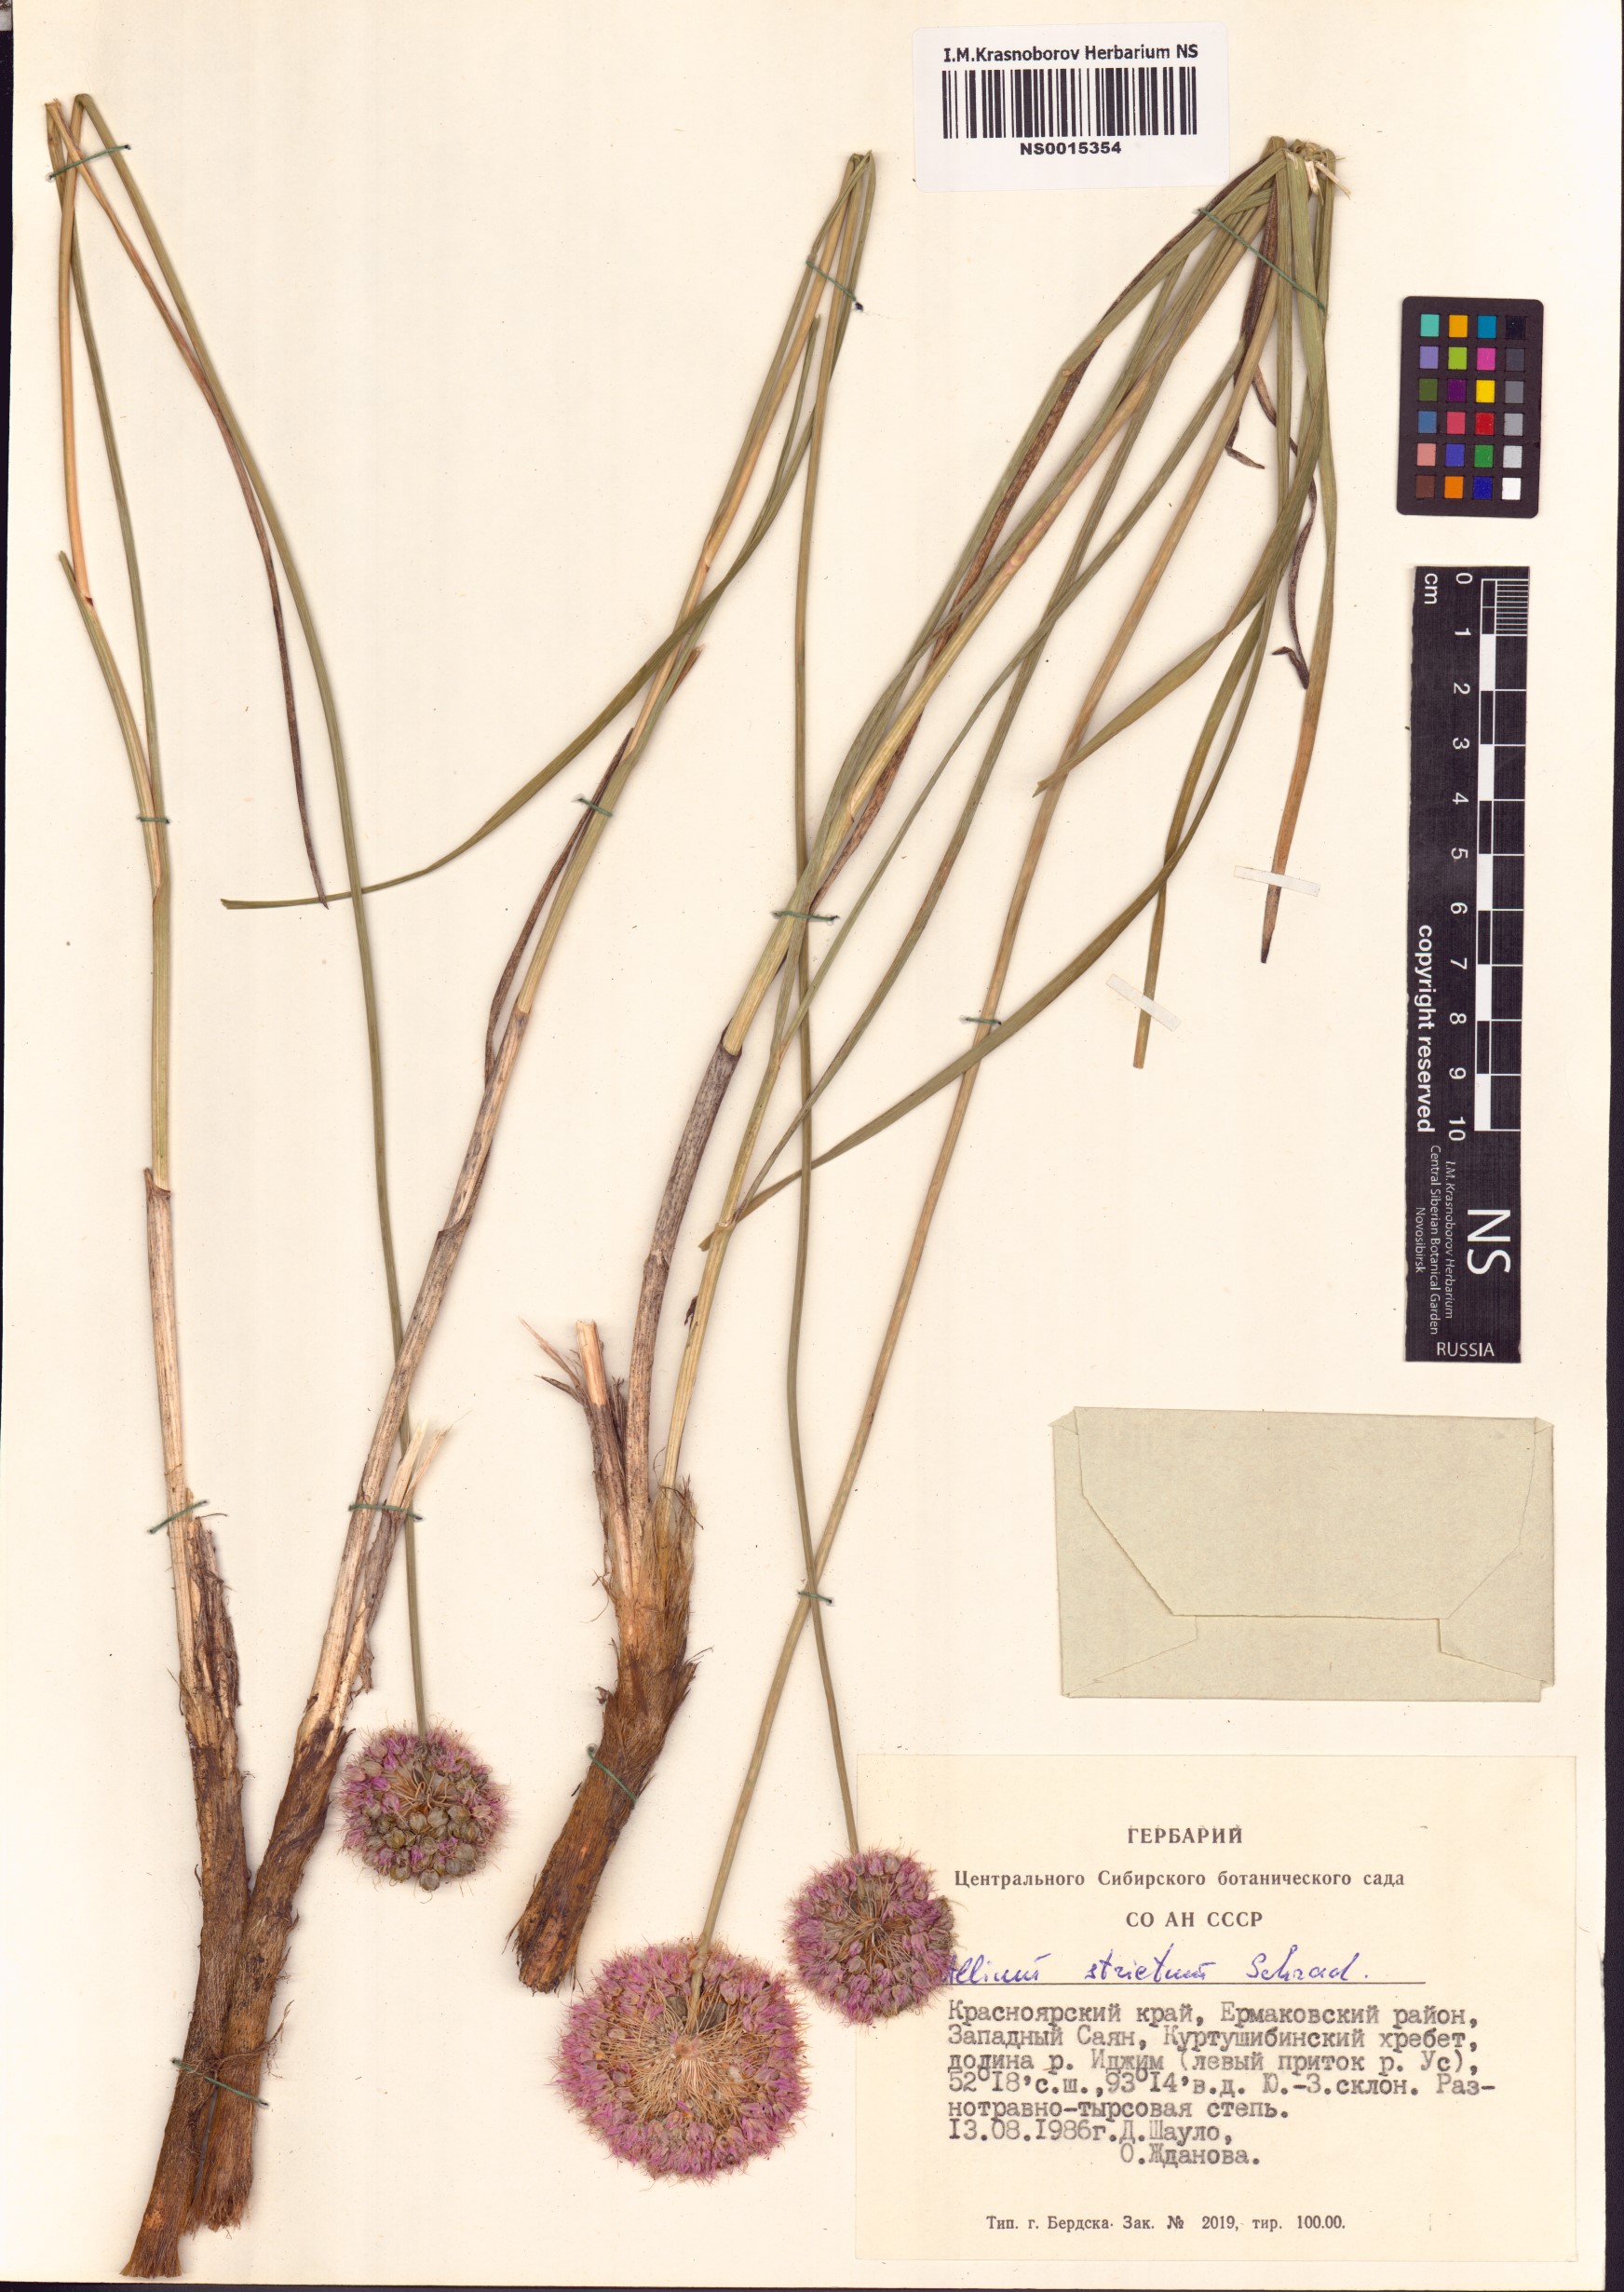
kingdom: Plantae
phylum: Tracheophyta
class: Liliopsida
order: Asparagales
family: Amaryllidaceae
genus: Allium
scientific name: Allium strictum
